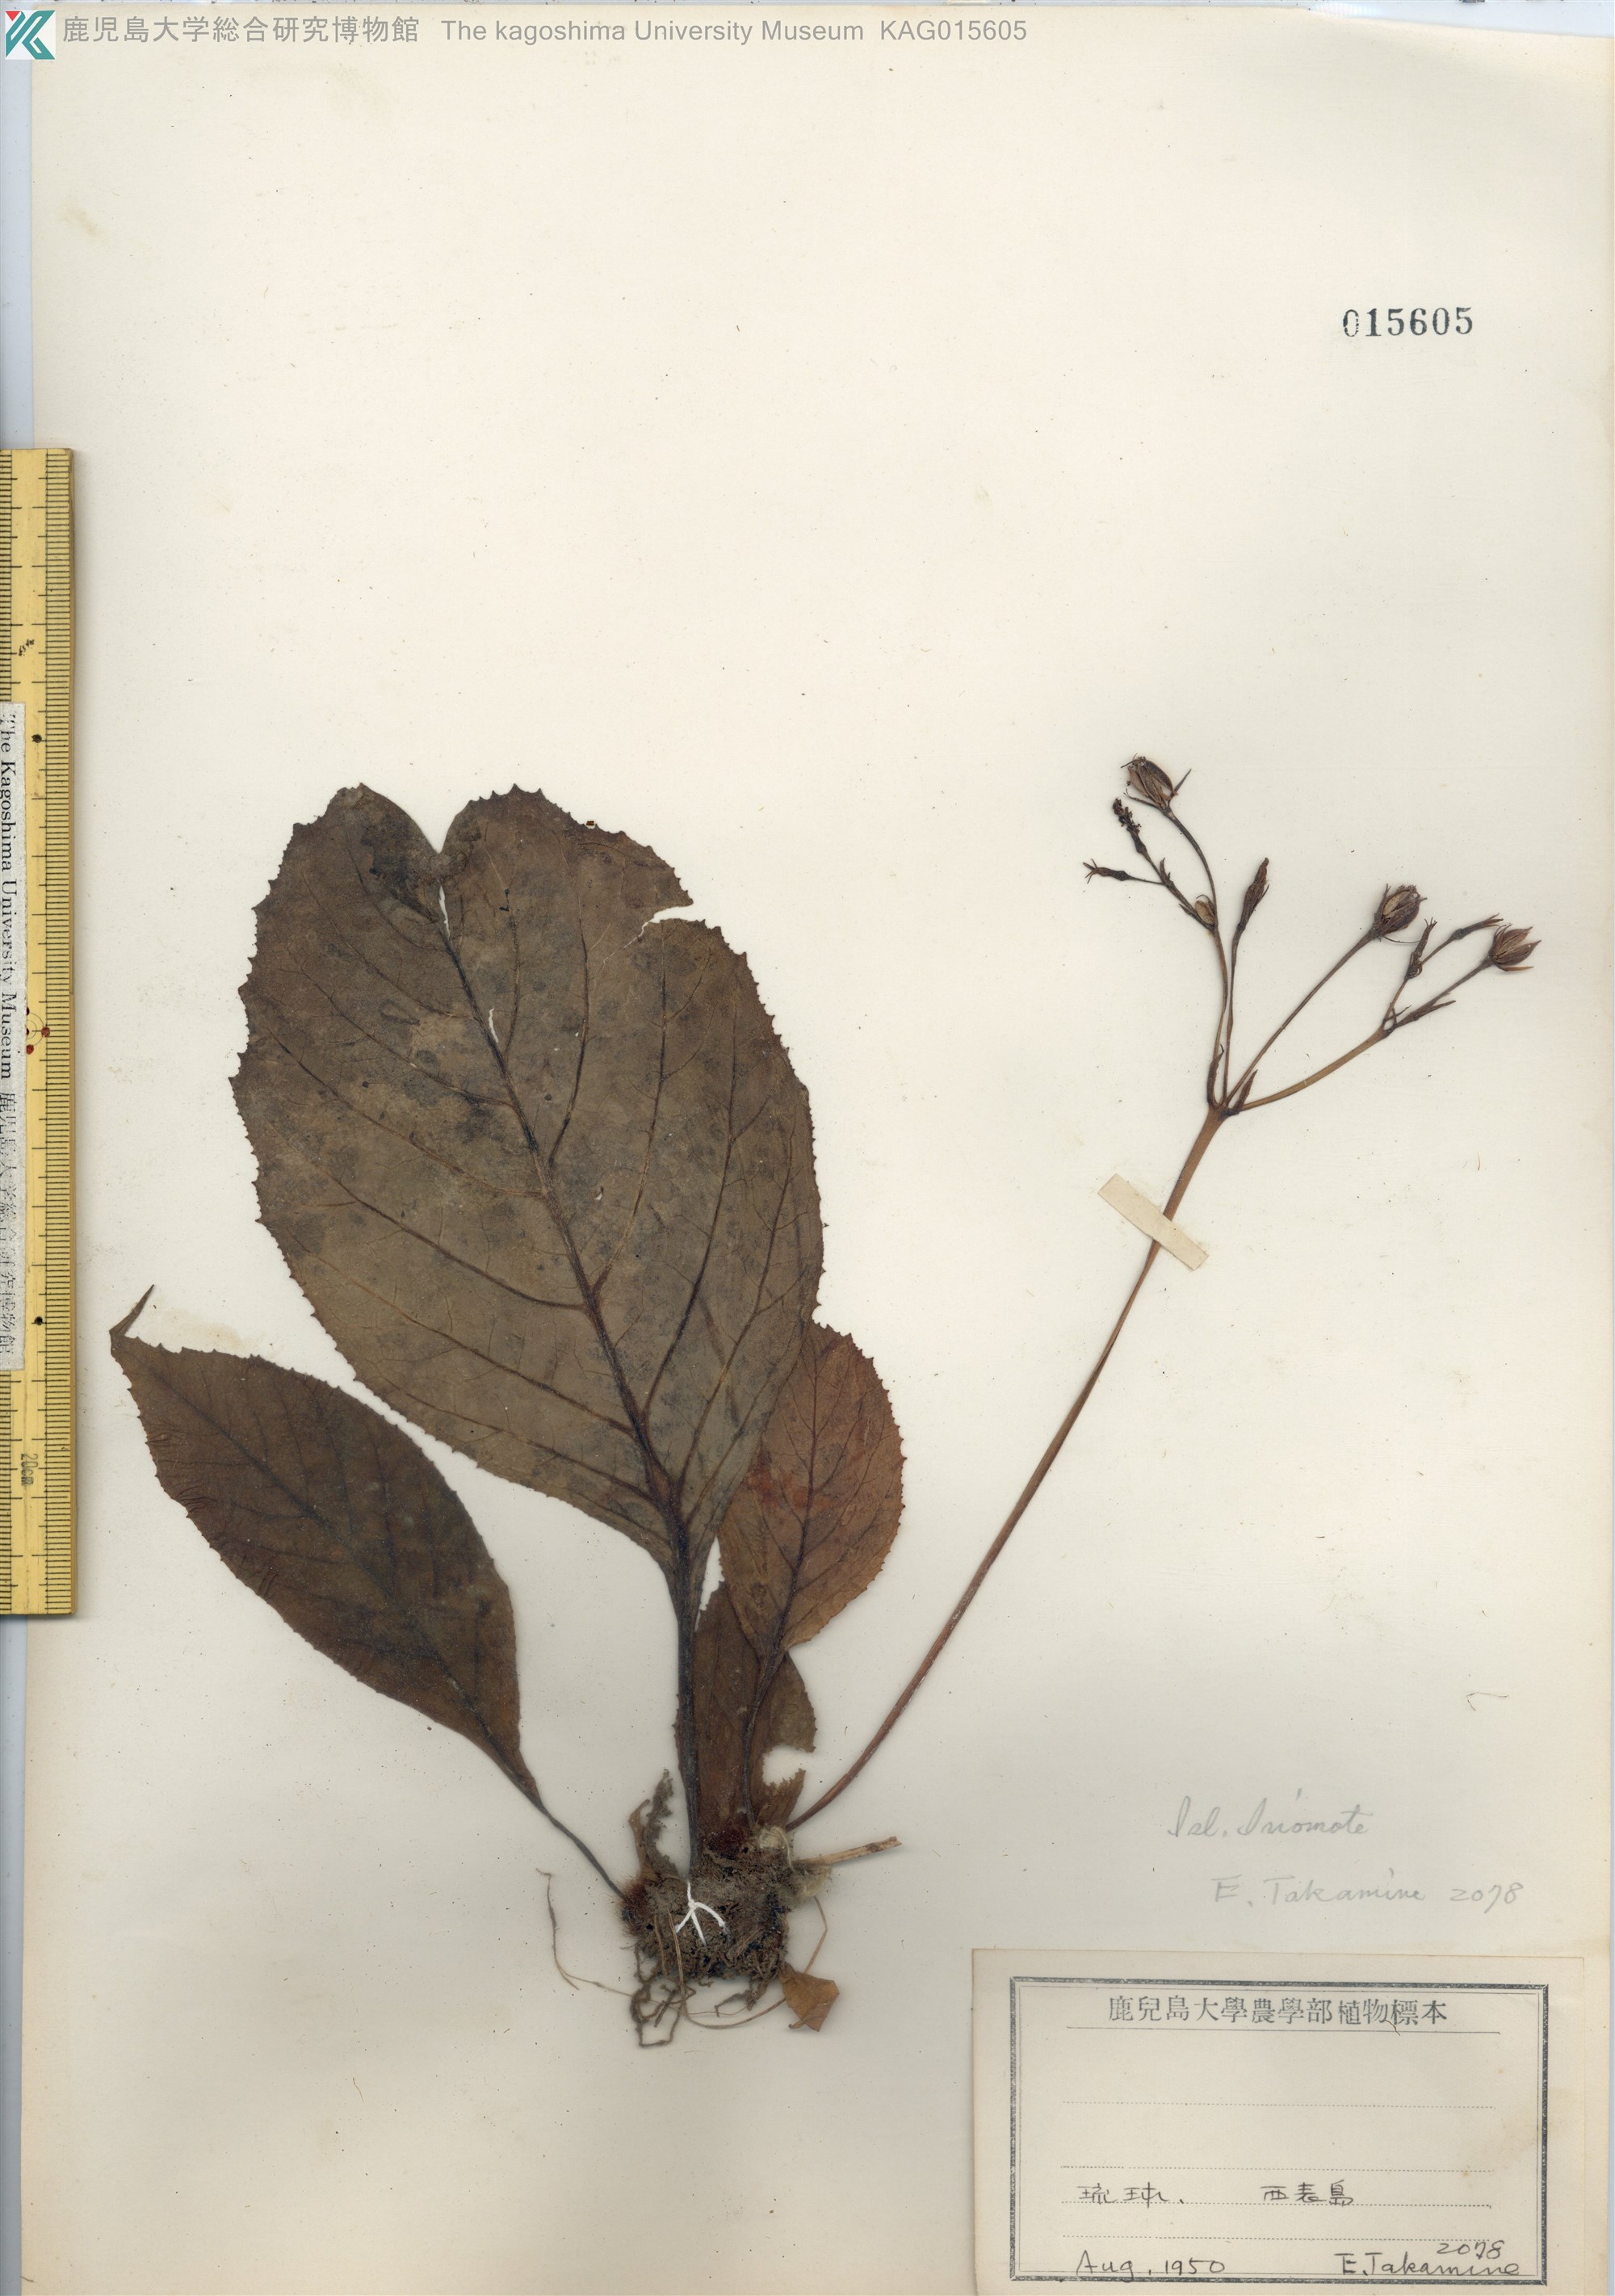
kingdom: Plantae
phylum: Tracheophyta
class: Magnoliopsida
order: Lamiales
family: Gesneriaceae
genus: Conandron
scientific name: Conandron ramondioides
